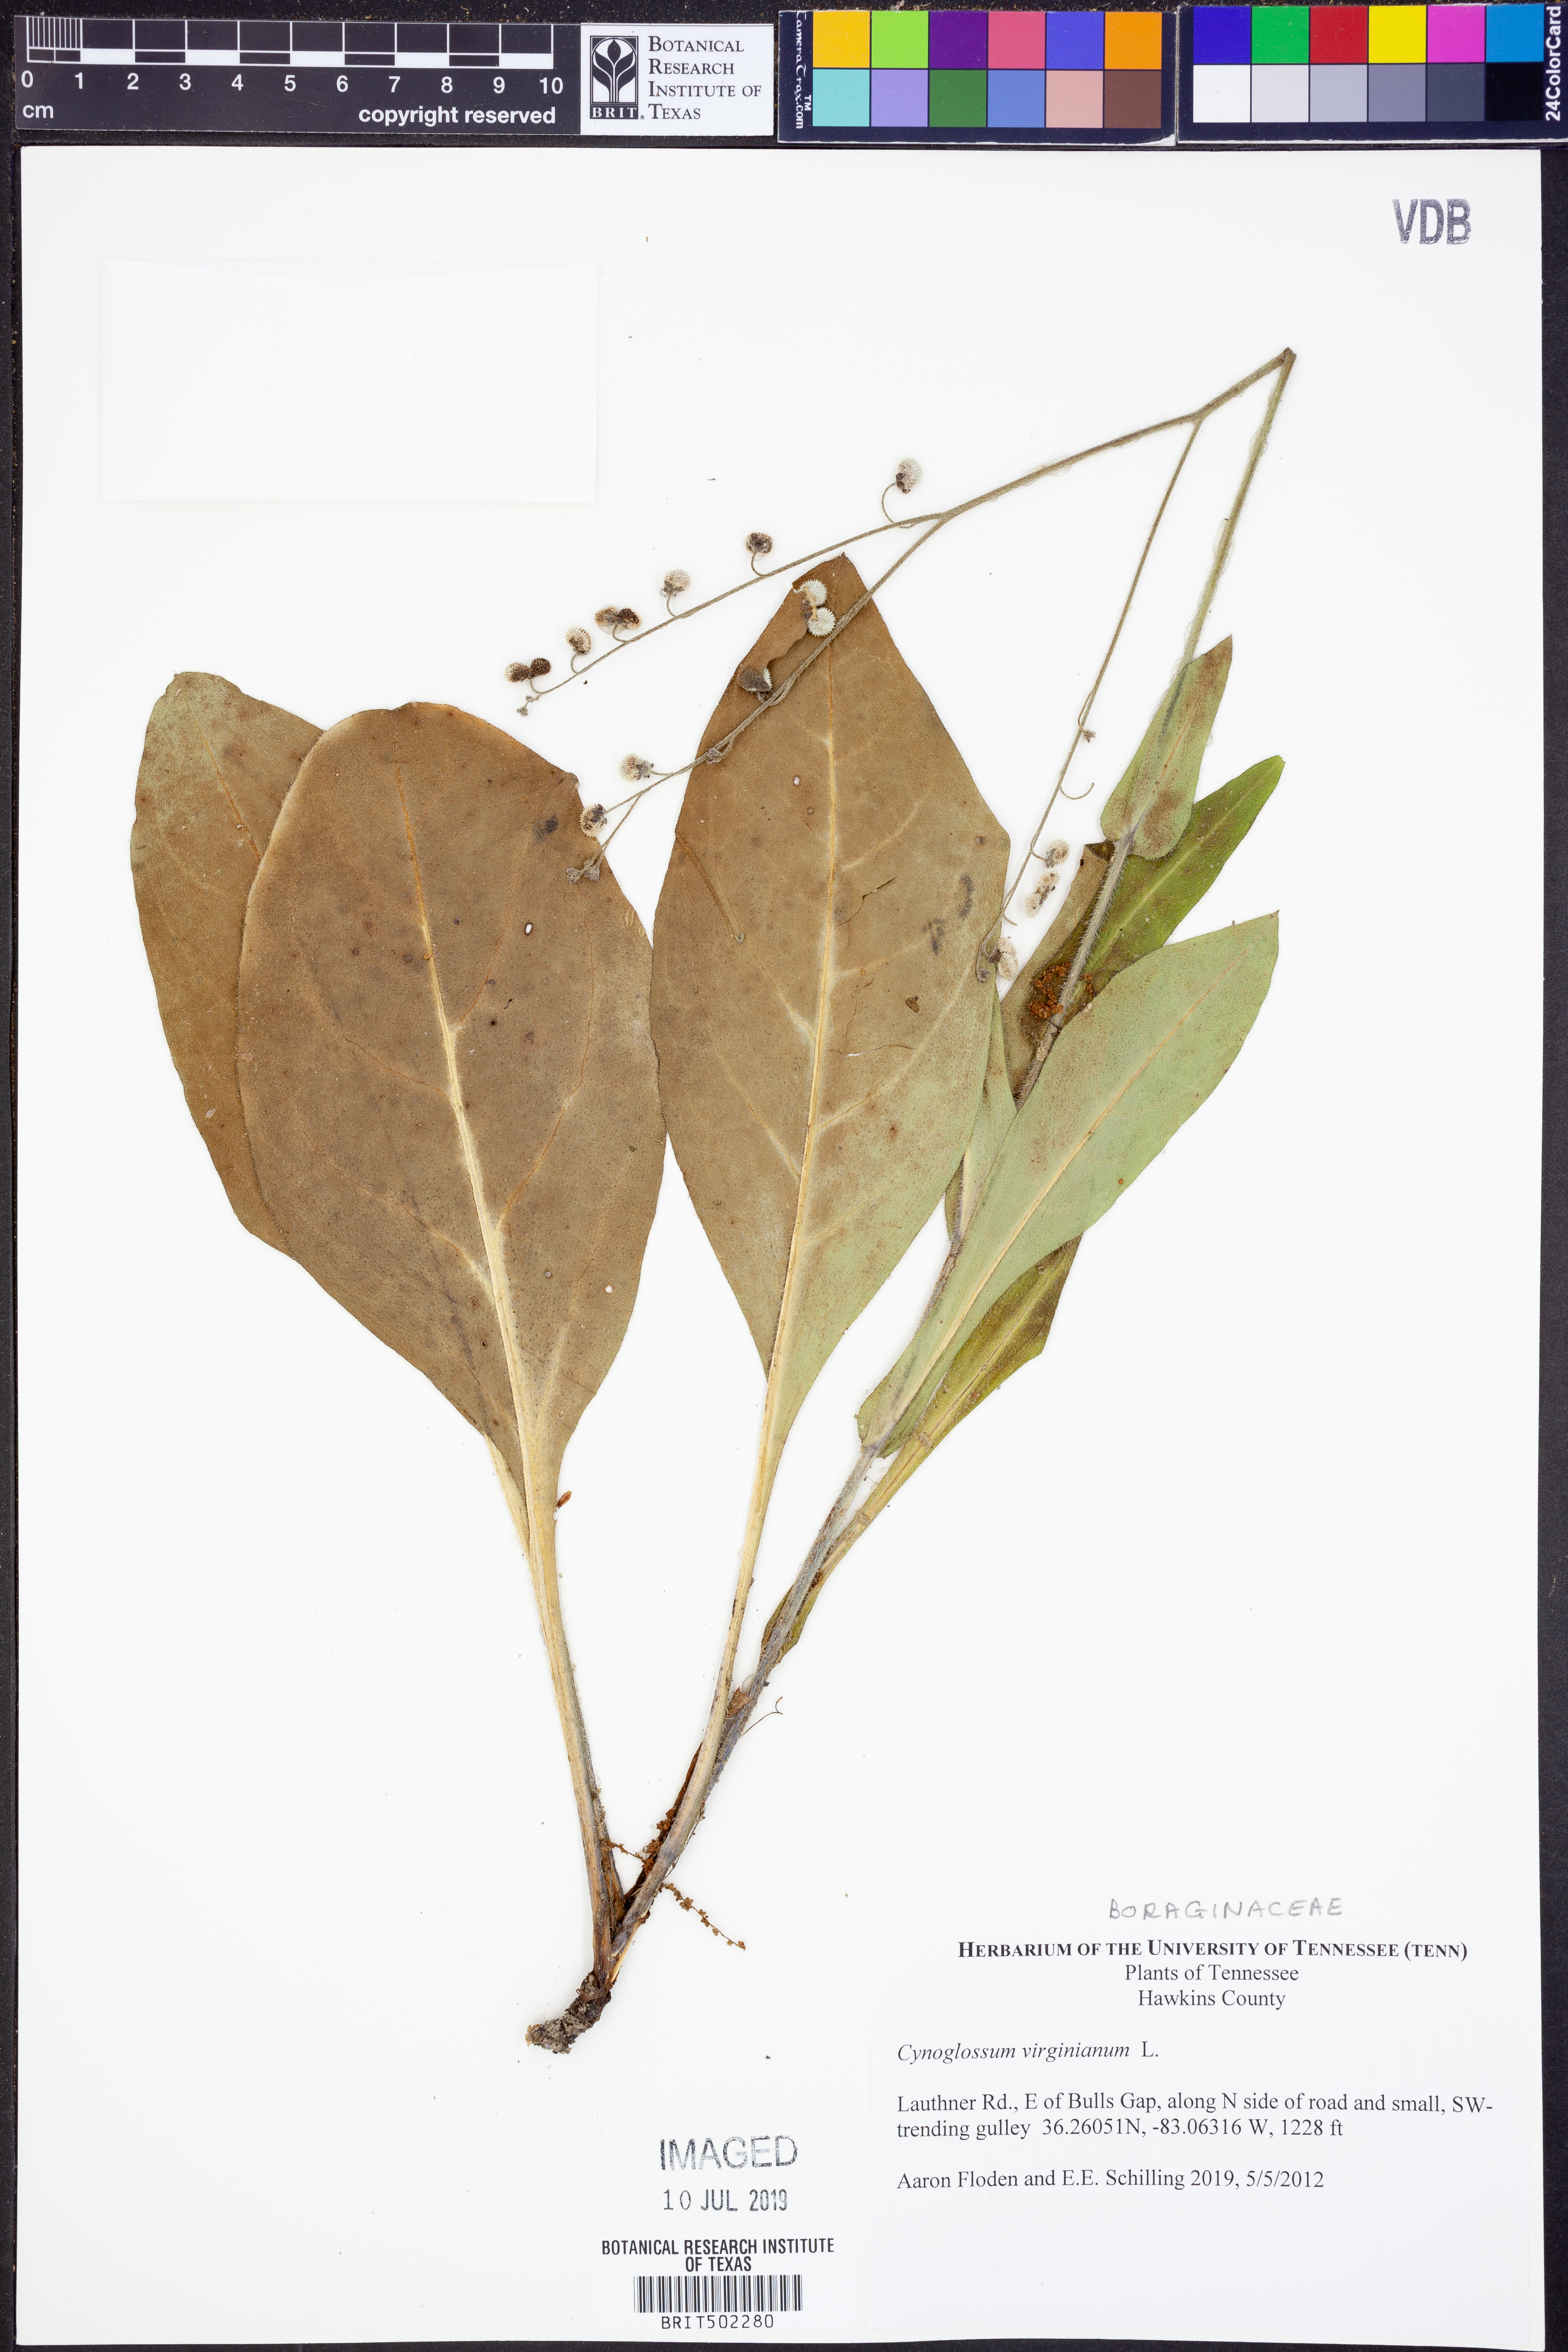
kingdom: Plantae
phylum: Tracheophyta
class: Magnoliopsida
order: Boraginales
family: Boraginaceae
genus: Andersonglossum
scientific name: Andersonglossum virginianum
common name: Wild comfrey
